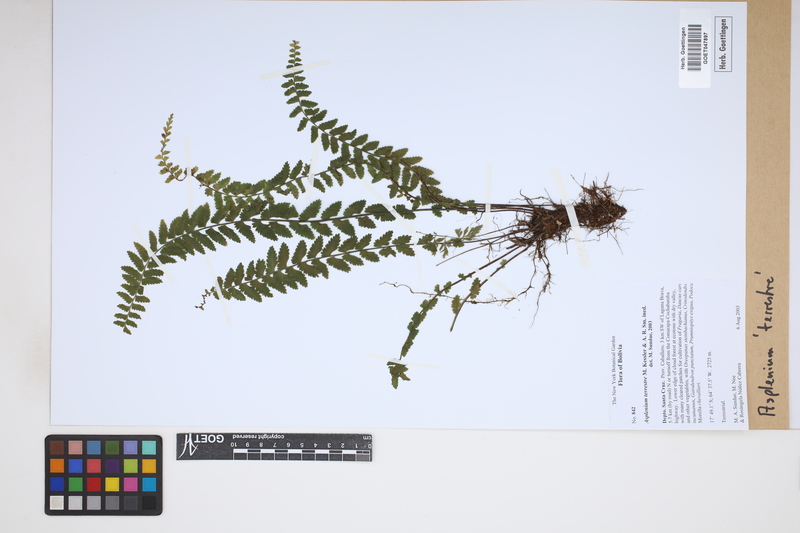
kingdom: Plantae
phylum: Tracheophyta
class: Polypodiopsida
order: Polypodiales
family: Aspleniaceae
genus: Asplenium
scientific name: Asplenium appendiculatum
